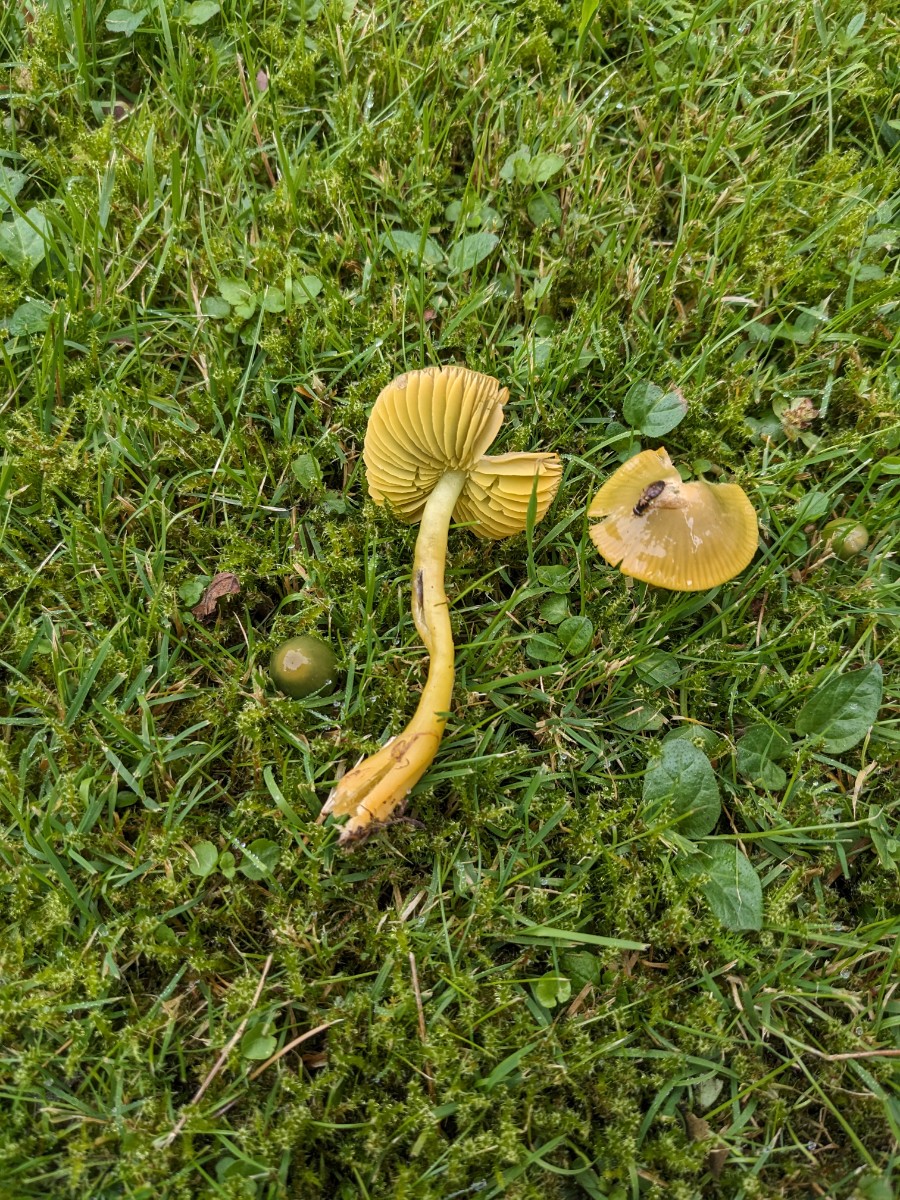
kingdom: Fungi
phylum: Basidiomycota
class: Agaricomycetes
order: Agaricales
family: Hygrophoraceae
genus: Gliophorus
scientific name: Gliophorus psittacinus
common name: papegøje-vokshat
